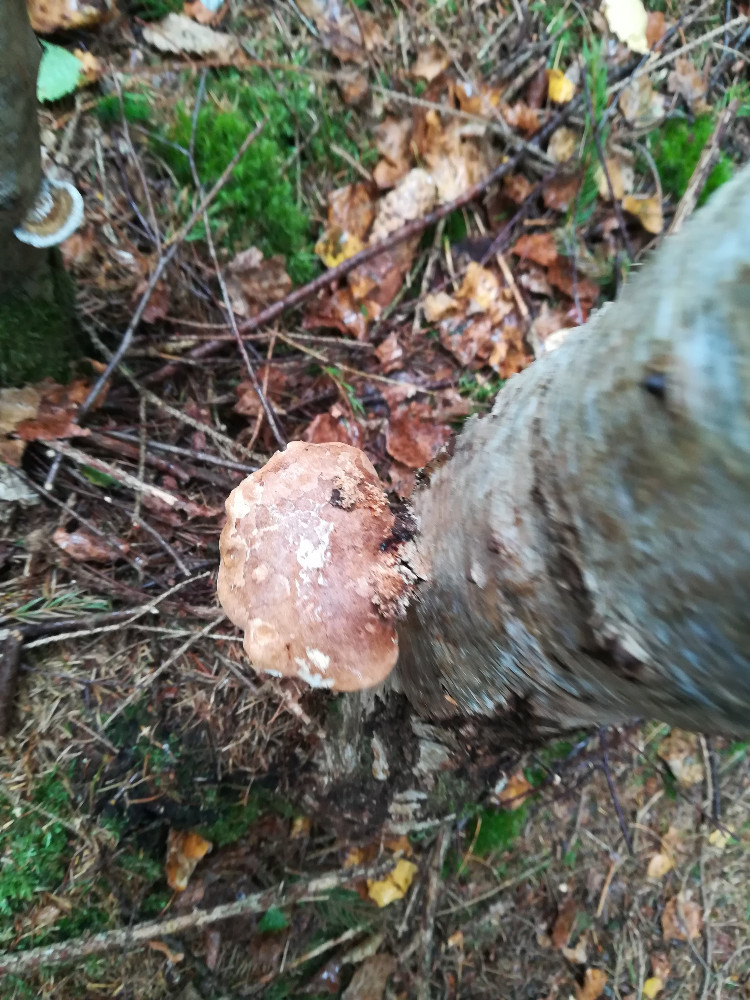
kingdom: Fungi
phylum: Basidiomycota
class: Agaricomycetes
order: Polyporales
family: Fomitopsidaceae
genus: Fomitopsis
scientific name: Fomitopsis betulina
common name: birkeporesvamp
